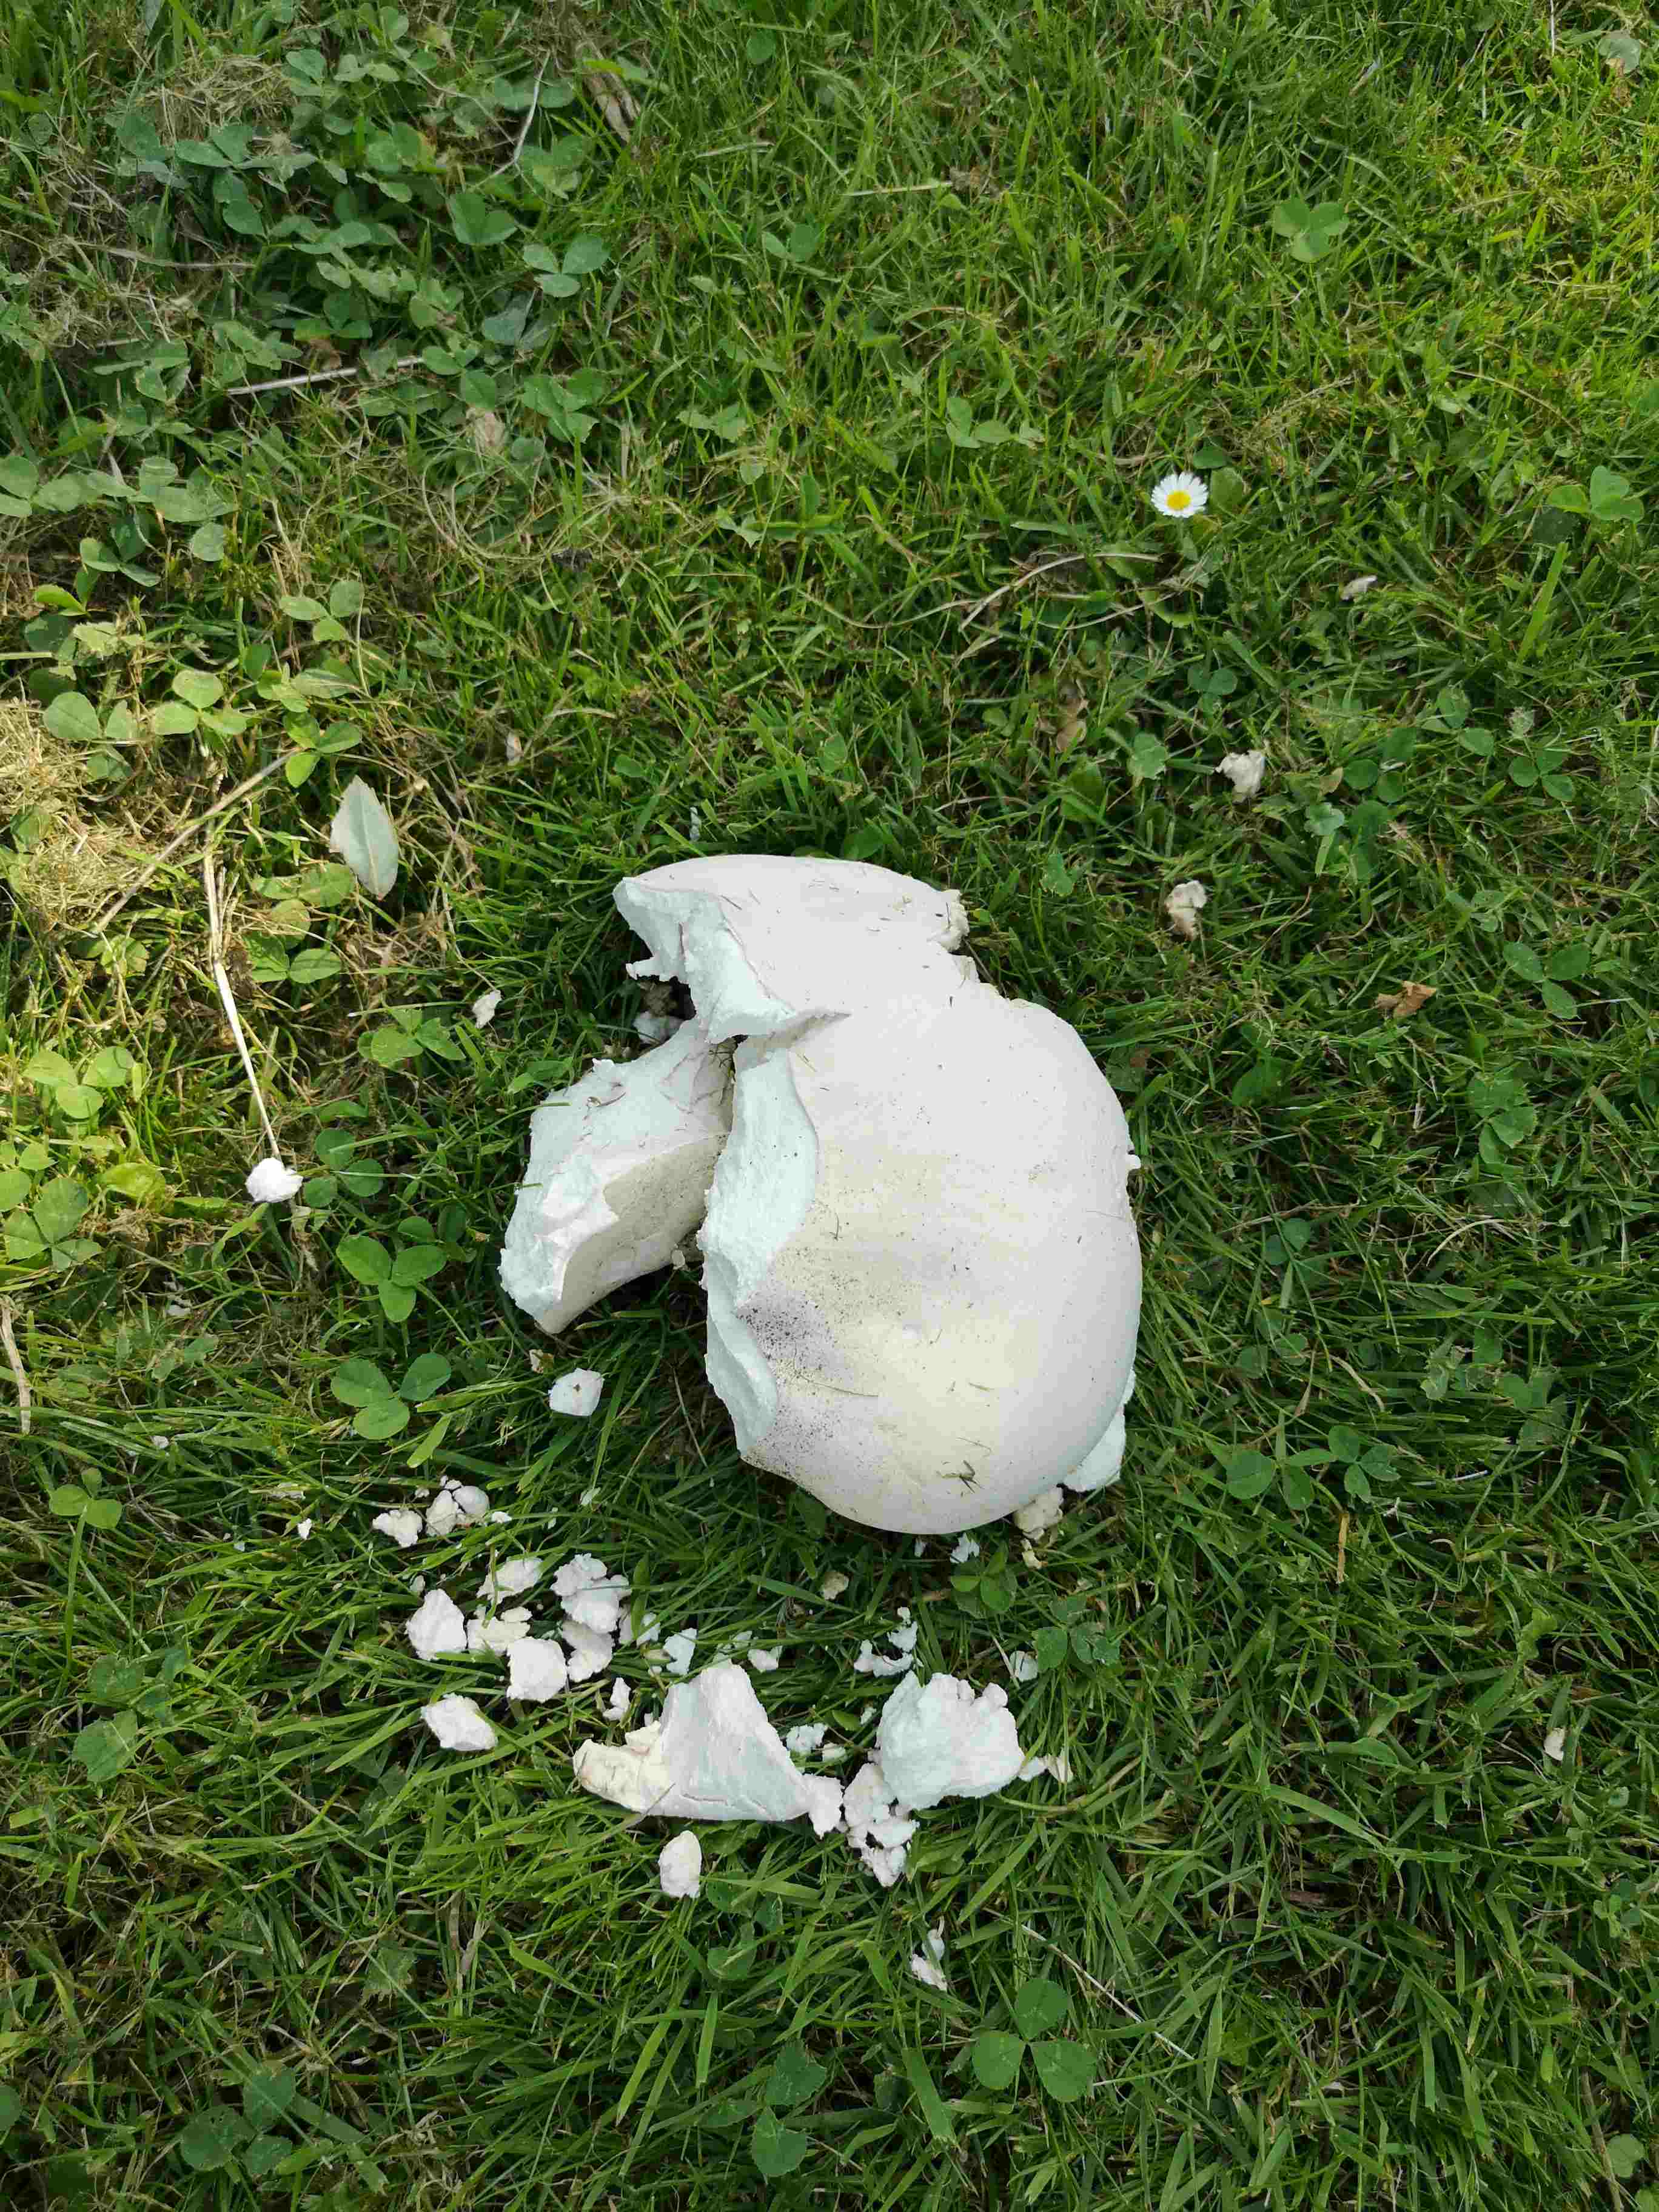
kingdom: Fungi
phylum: Basidiomycota
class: Agaricomycetes
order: Agaricales
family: Lycoperdaceae
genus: Calvatia
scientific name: Calvatia gigantea
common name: kæmpestøvbold
